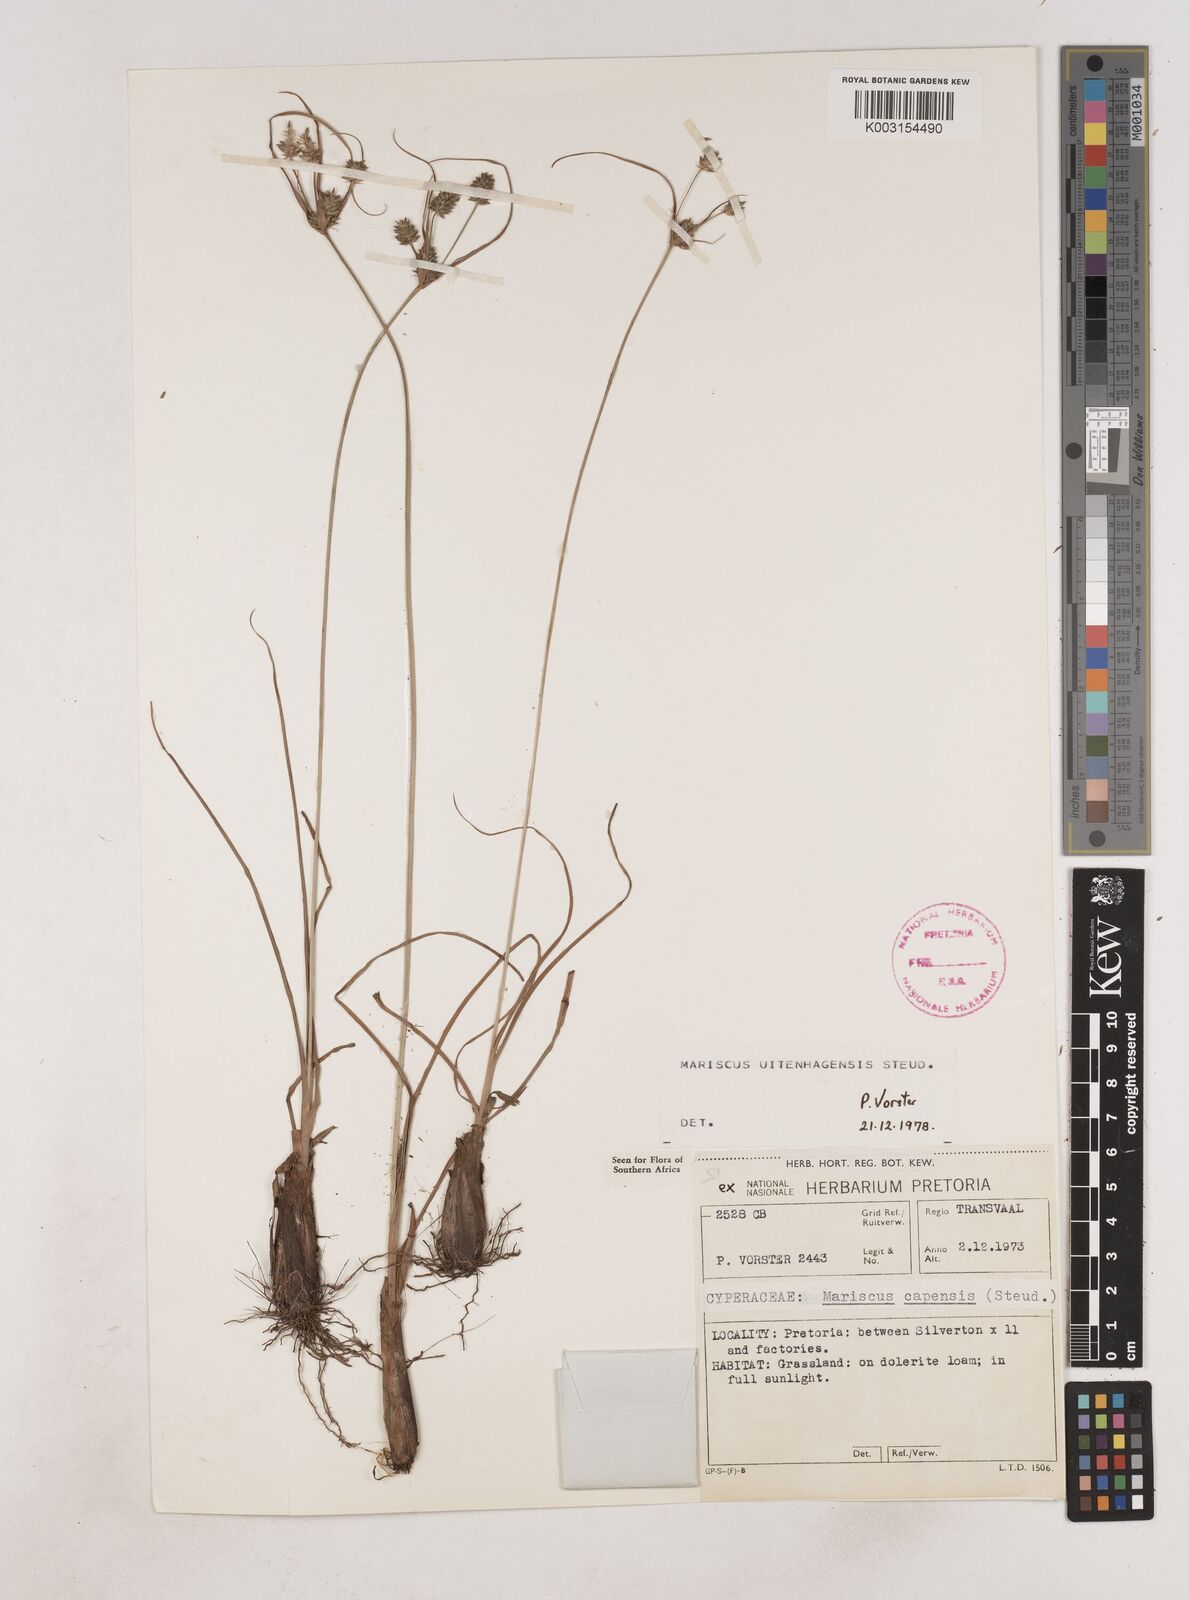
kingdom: Plantae
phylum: Tracheophyta
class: Liliopsida
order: Poales
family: Cyperaceae
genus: Cyperus
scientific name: Cyperus capensis
